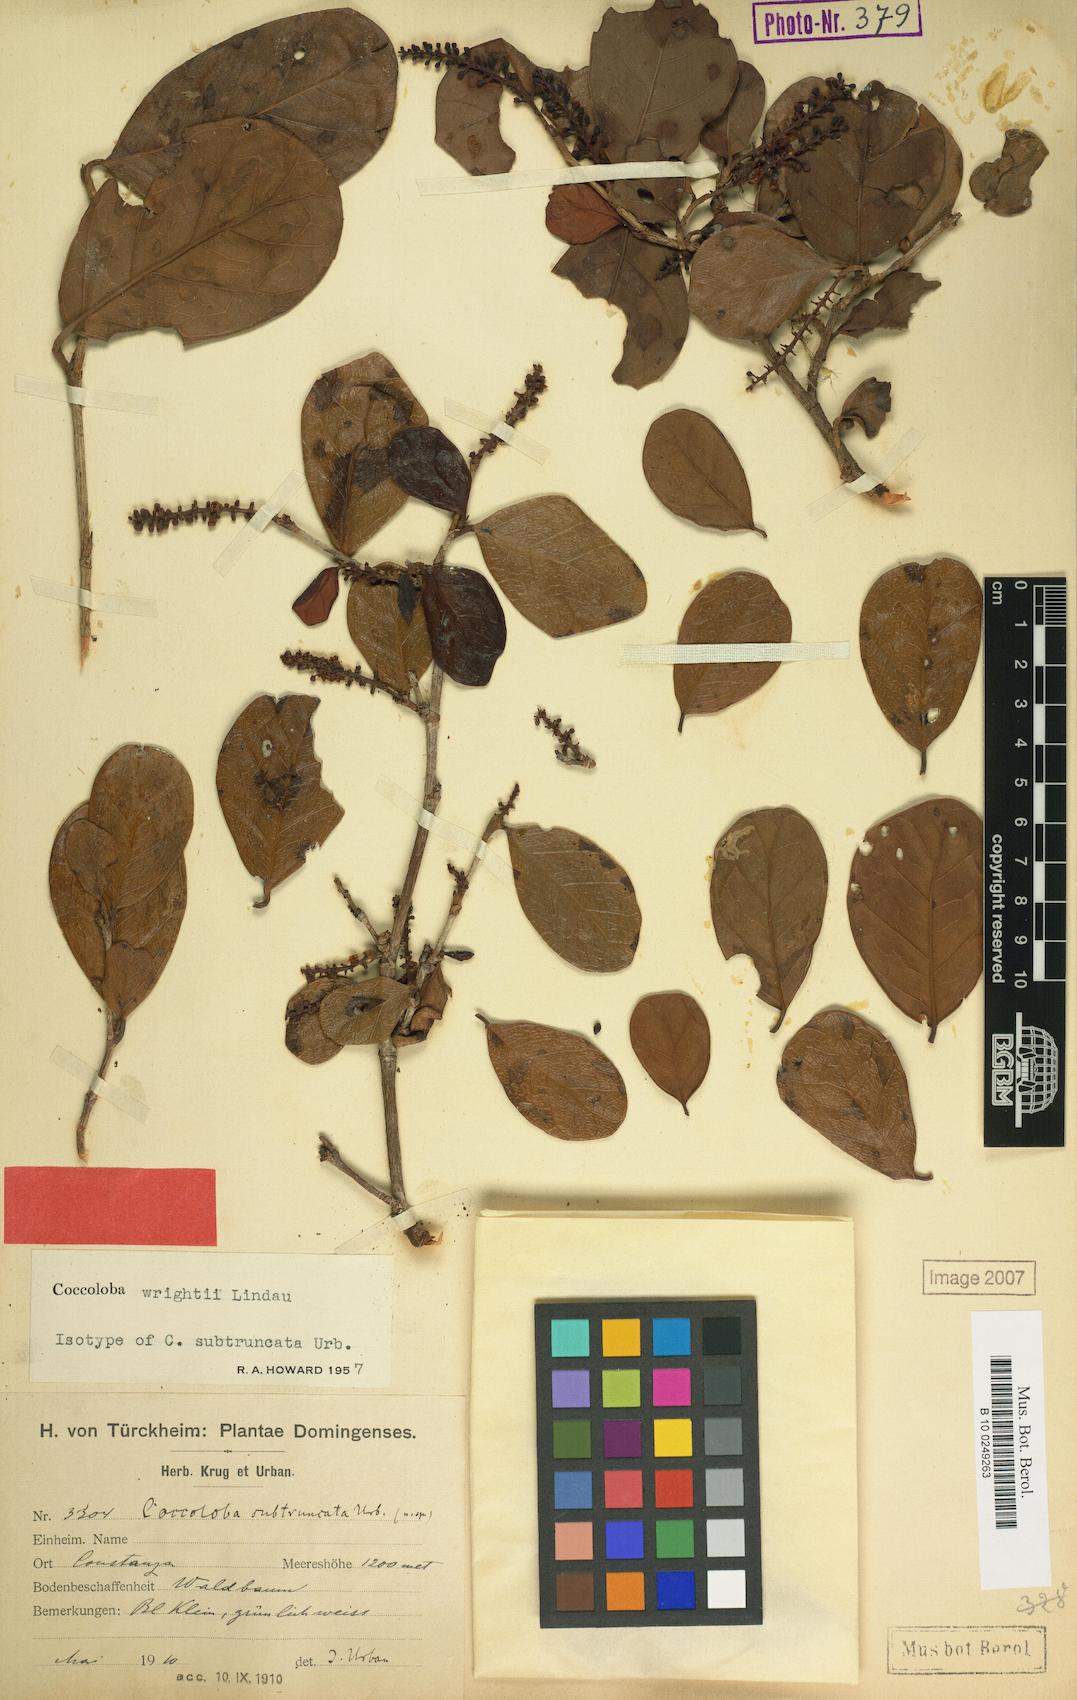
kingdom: Plantae
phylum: Tracheophyta
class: Magnoliopsida
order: Caryophyllales
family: Polygonaceae
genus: Coccoloba
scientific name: Coccoloba wrightii
